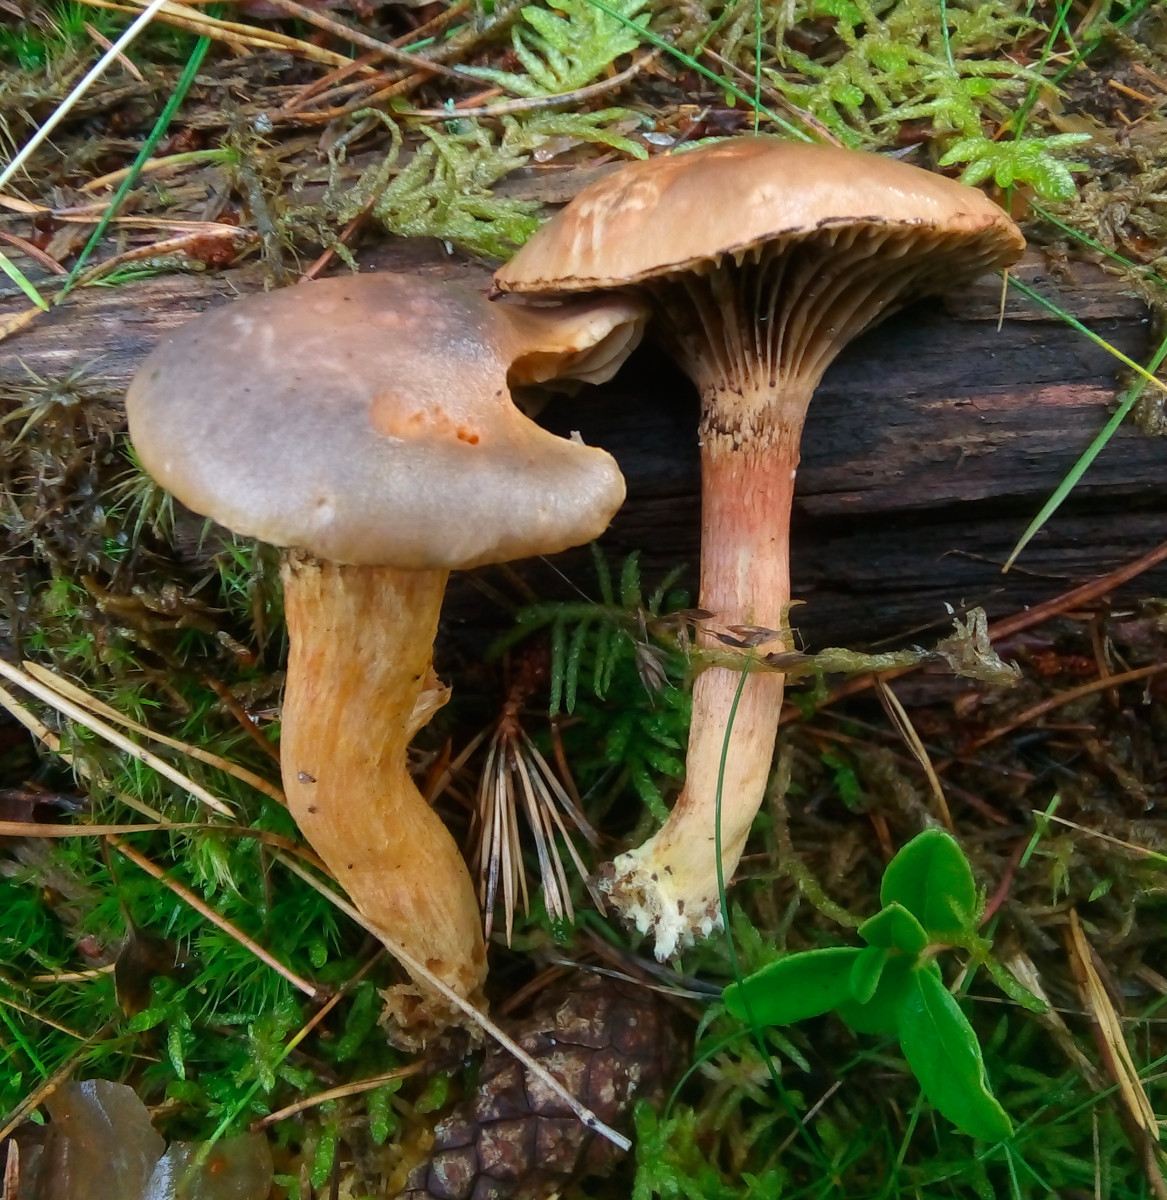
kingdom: Fungi
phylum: Basidiomycota
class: Agaricomycetes
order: Boletales
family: Gomphidiaceae
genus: Chroogomphus
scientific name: Chroogomphus rutilus
